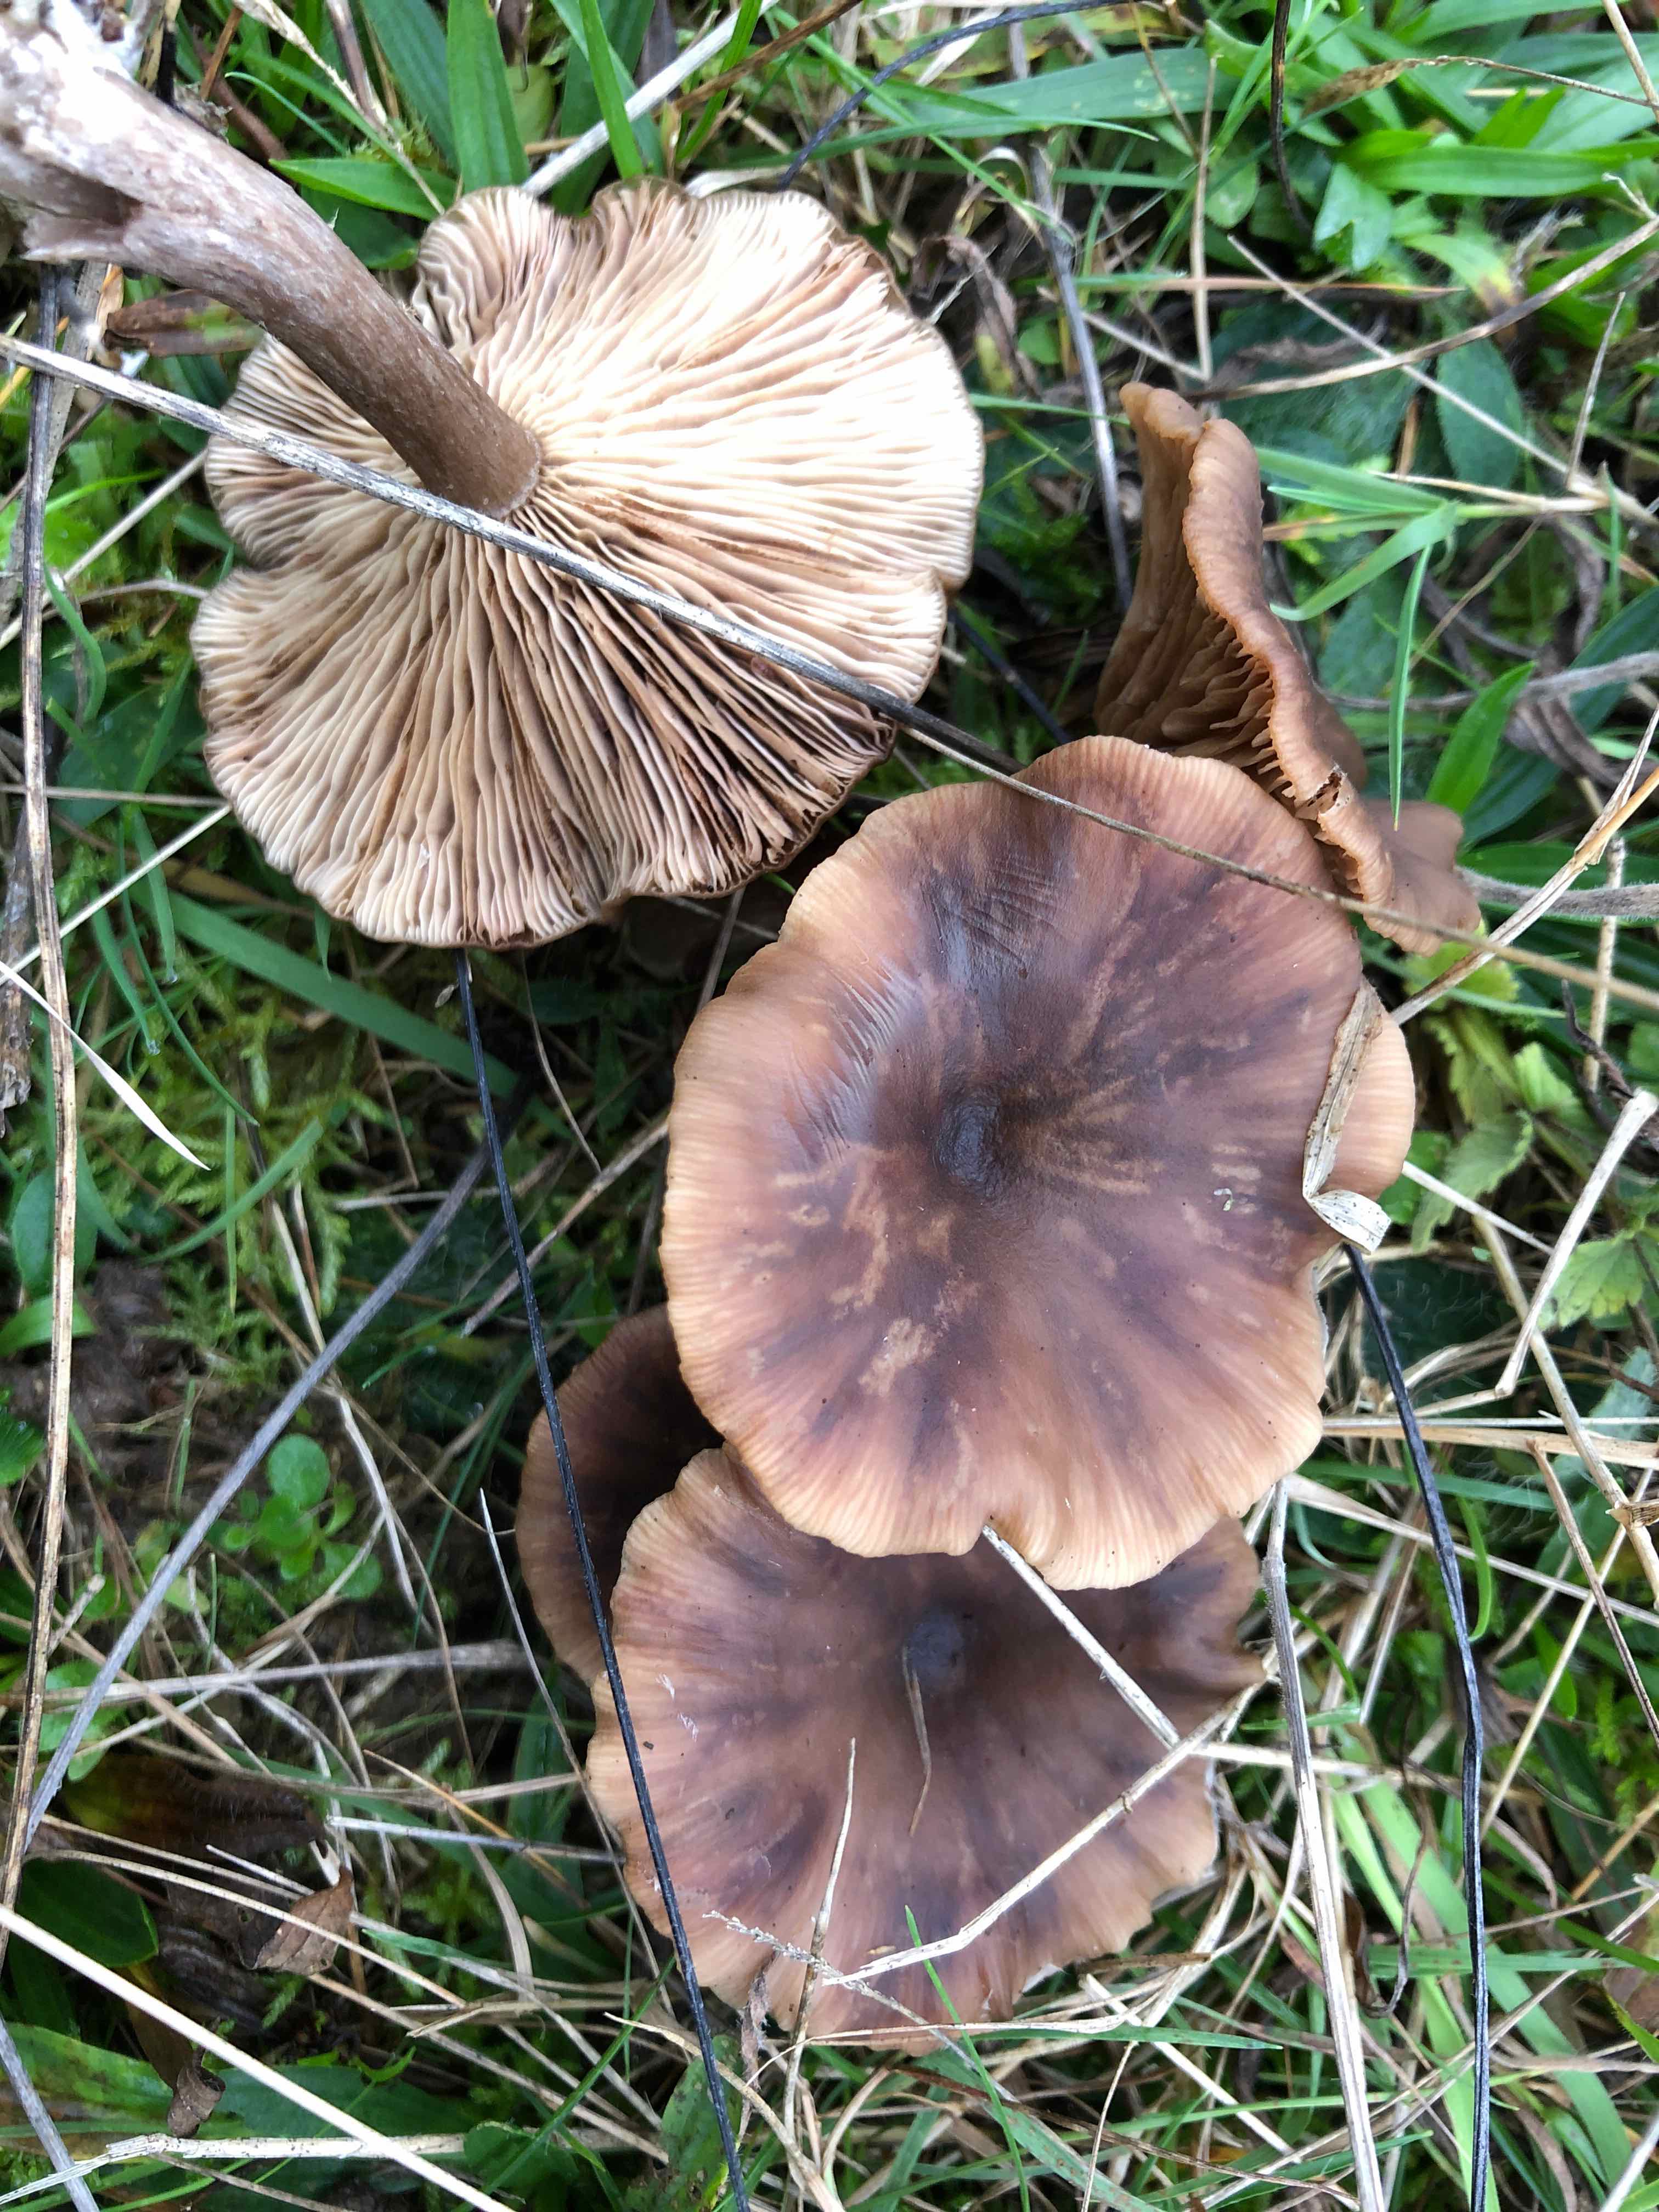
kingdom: Fungi
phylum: Basidiomycota
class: Agaricomycetes
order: Agaricales
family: Pseudoclitocybaceae
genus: Pseudoclitocybe
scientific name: Pseudoclitocybe
